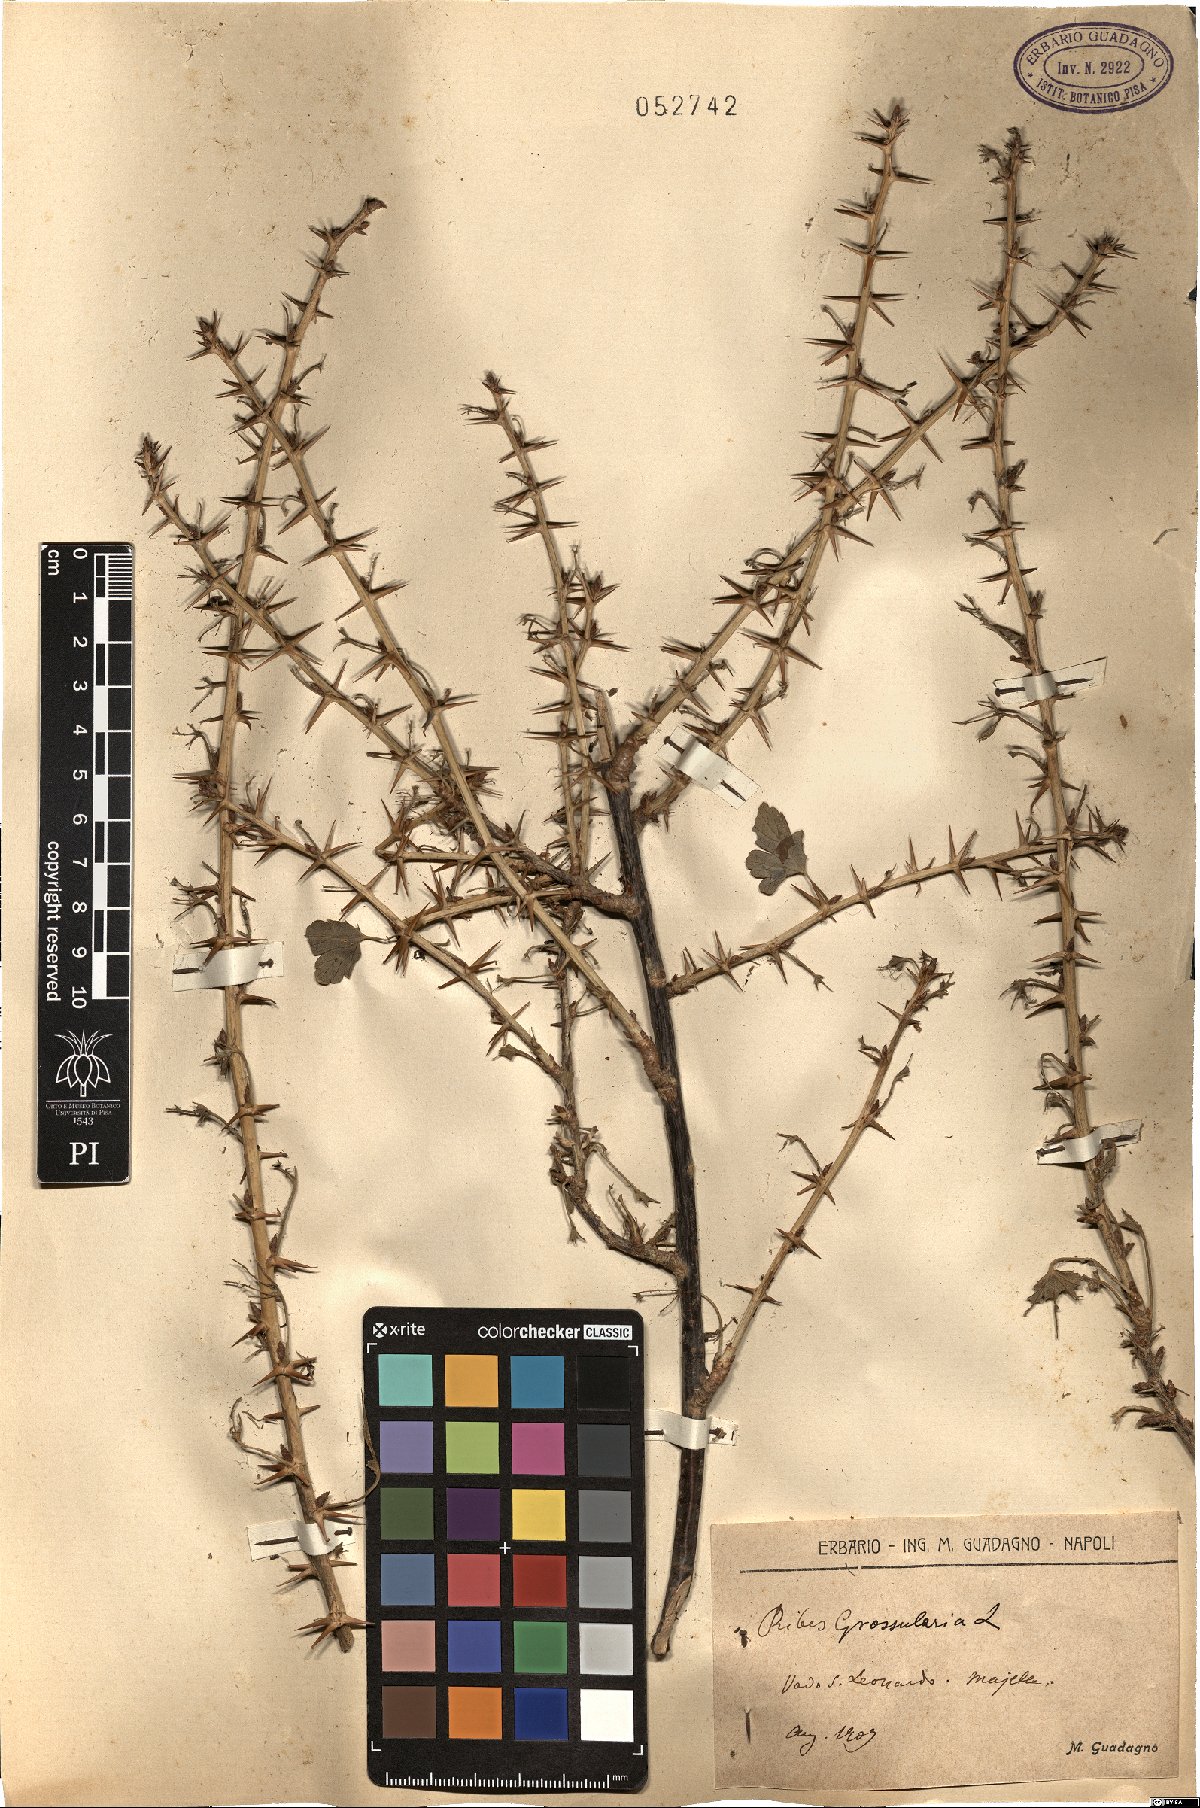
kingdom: Plantae
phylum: Tracheophyta
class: Magnoliopsida
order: Saxifragales
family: Grossulariaceae
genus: Ribes
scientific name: Ribes uva-crispa
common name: Gooseberry
